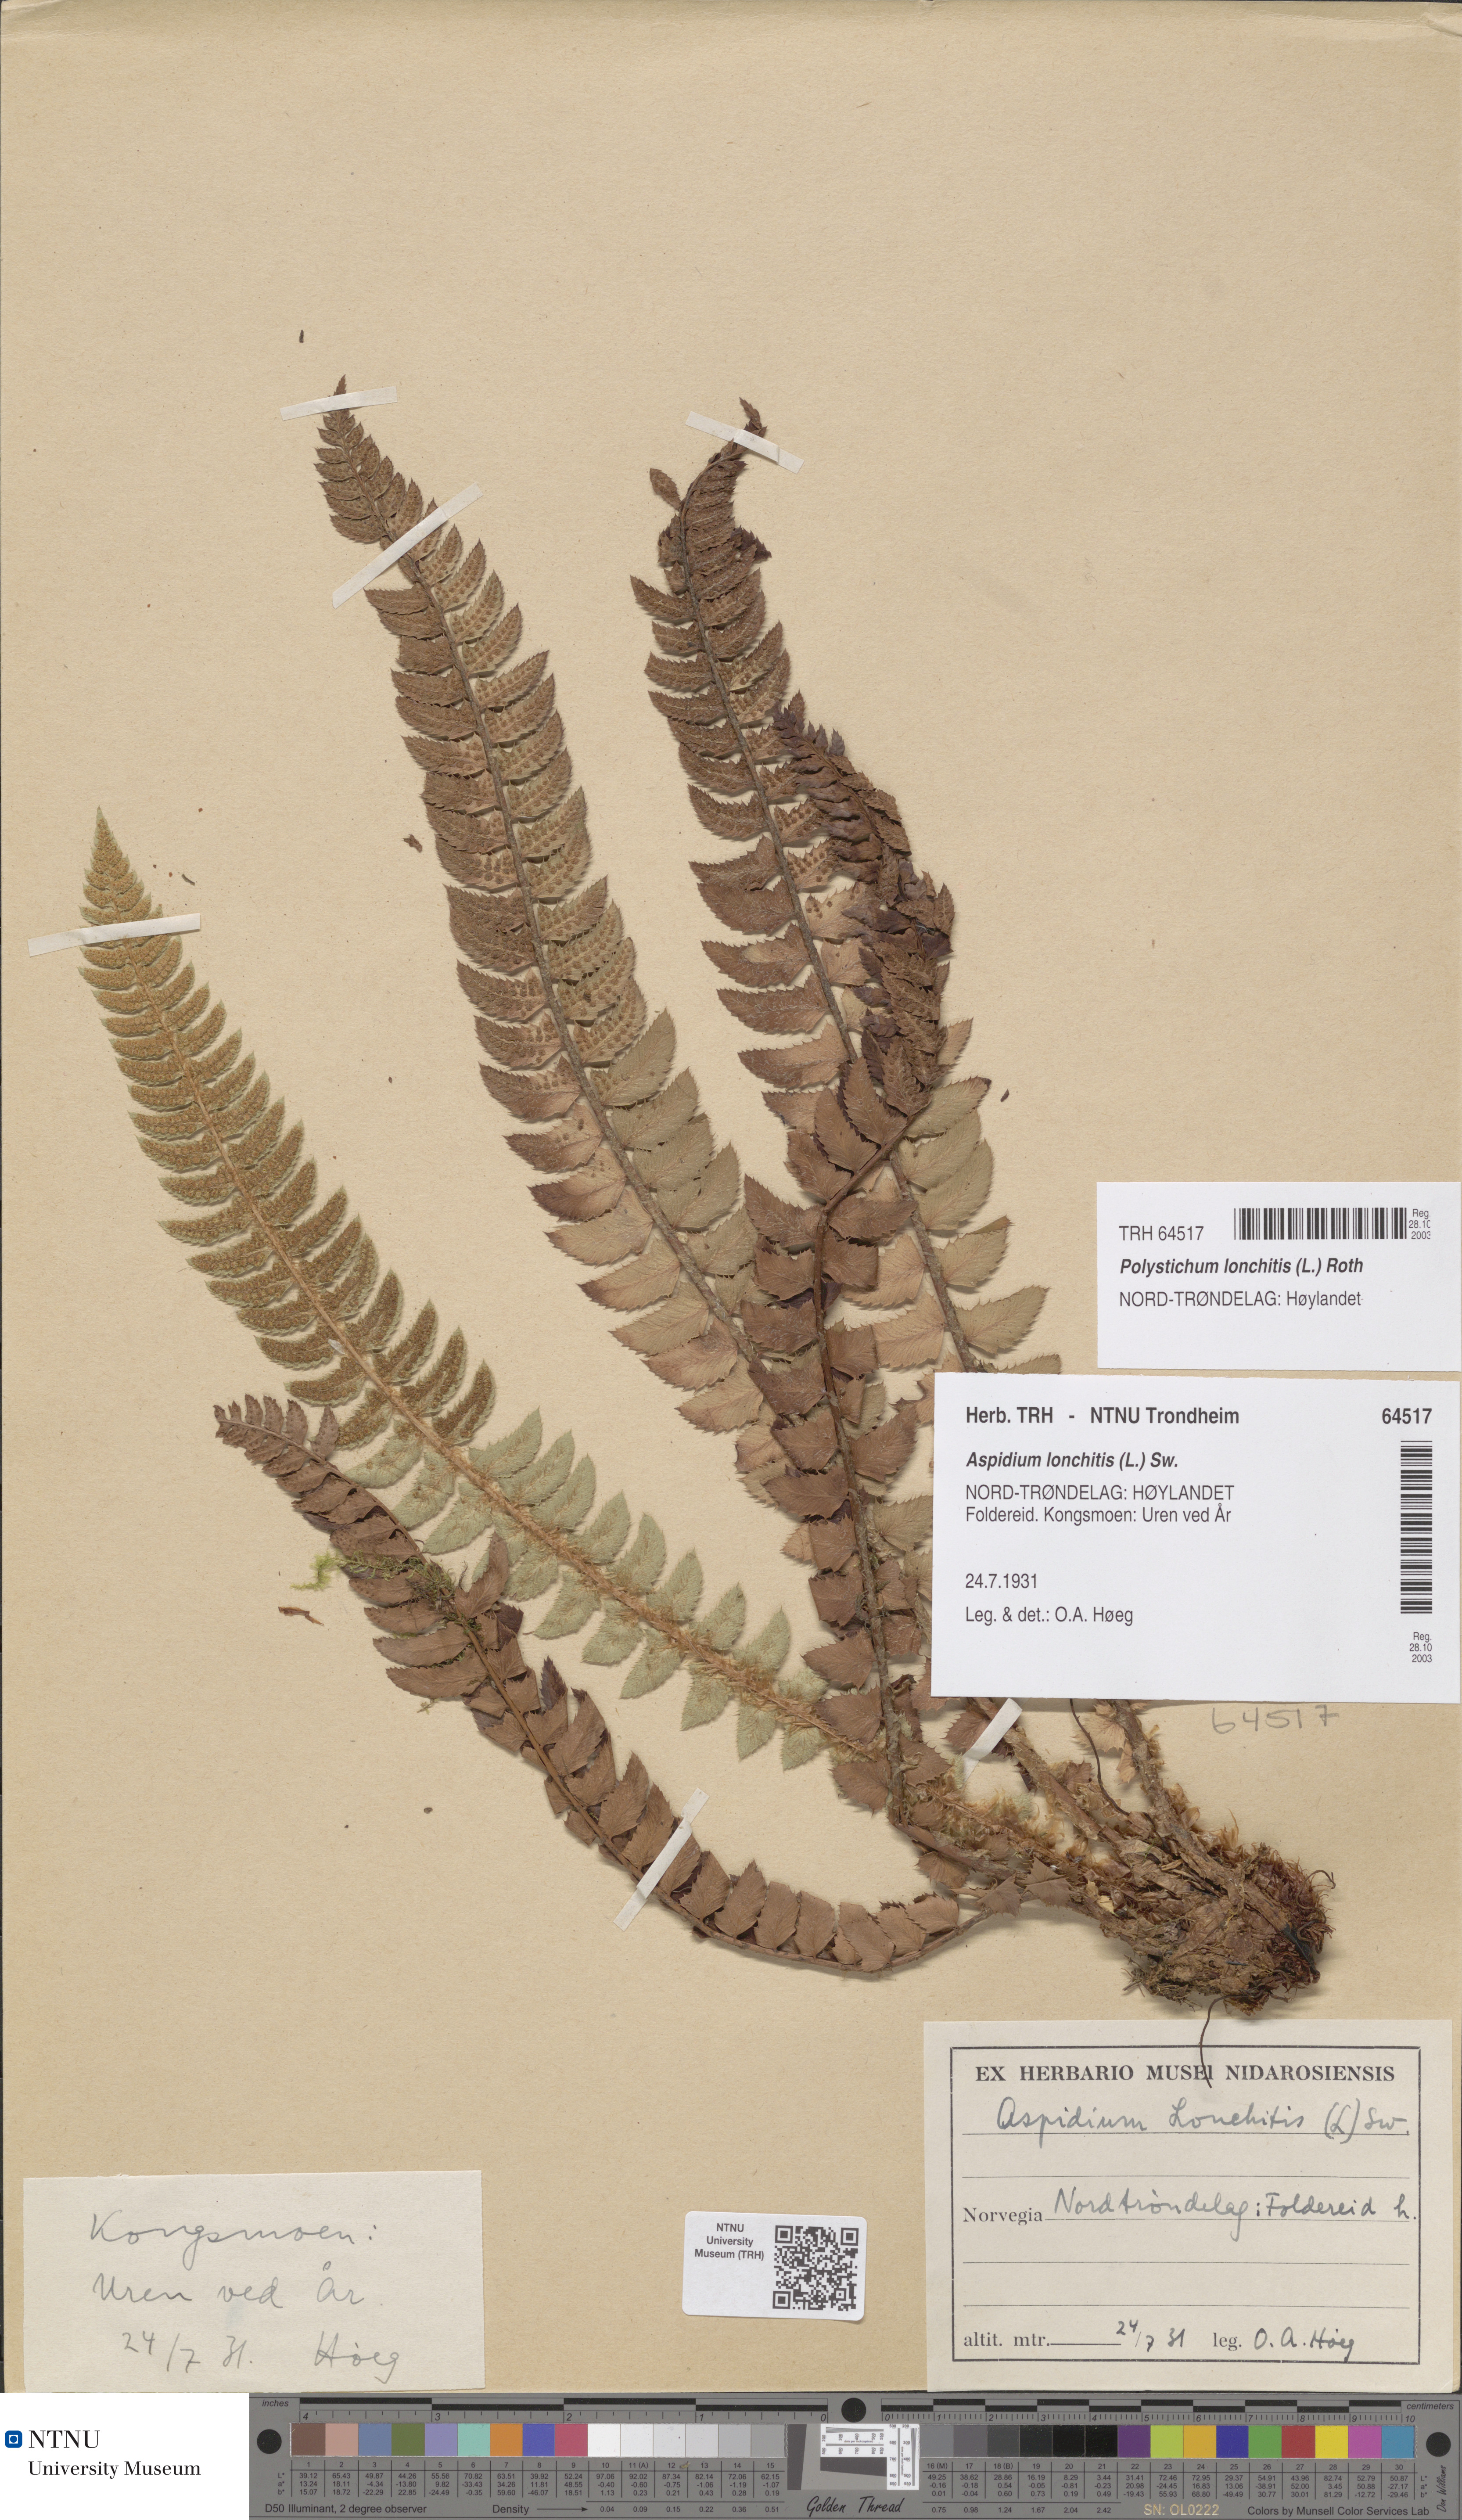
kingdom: Plantae
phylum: Tracheophyta
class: Polypodiopsida
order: Polypodiales
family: Dryopteridaceae
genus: Polystichum
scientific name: Polystichum lonchitis
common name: Holly fern
